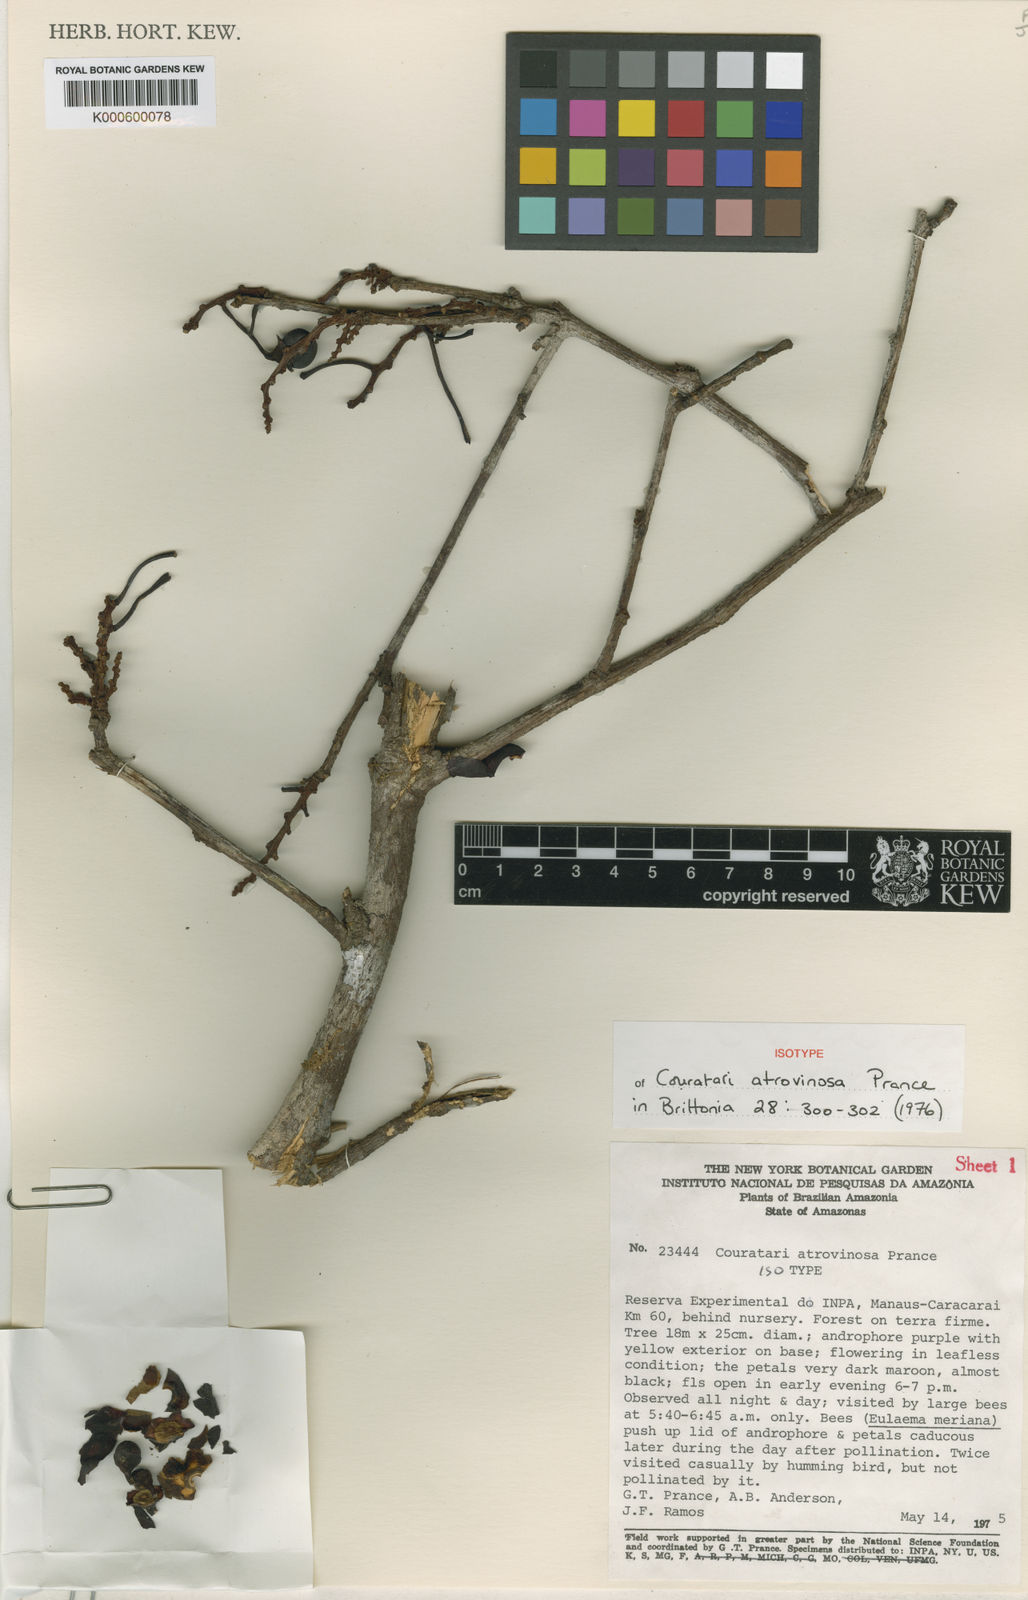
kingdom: Plantae
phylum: Tracheophyta
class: Magnoliopsida
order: Ericales
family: Lecythidaceae
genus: Couratari
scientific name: Couratari atrovinosa
